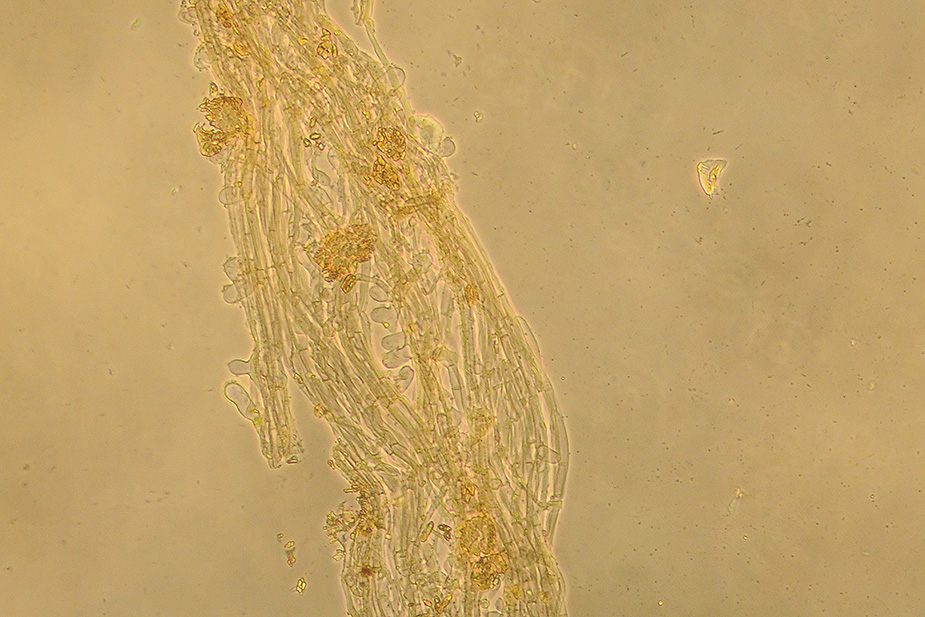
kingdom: Fungi
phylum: Basidiomycota
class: Agaricomycetes
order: Agaricales
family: Hygrophoraceae
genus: Arrhenia
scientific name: Arrhenia rustica
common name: dyster fontænehat
